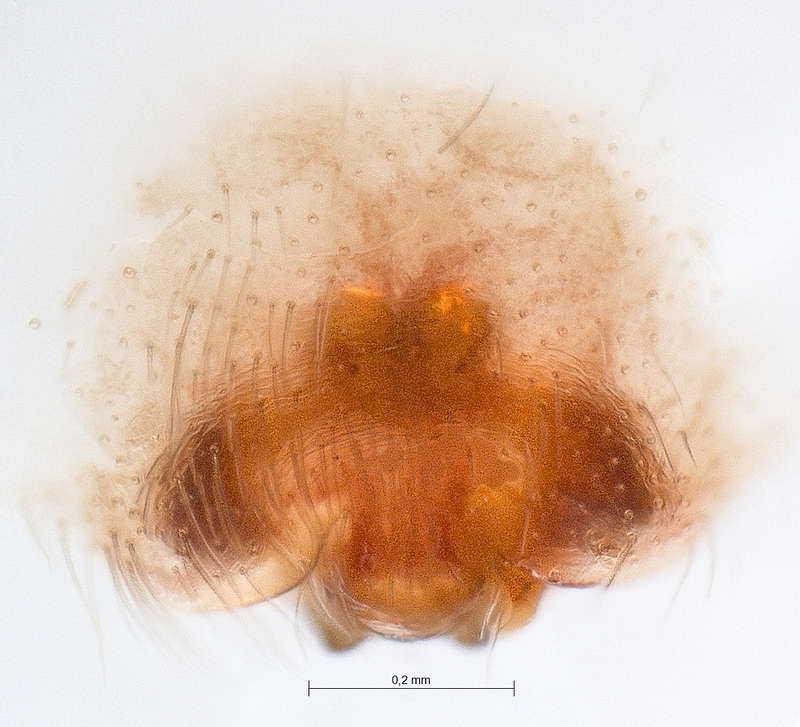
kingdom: Animalia
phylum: Arthropoda
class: Arachnida
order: Araneae
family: Clubionidae
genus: Clubiona
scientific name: Clubiona kulczynskii
